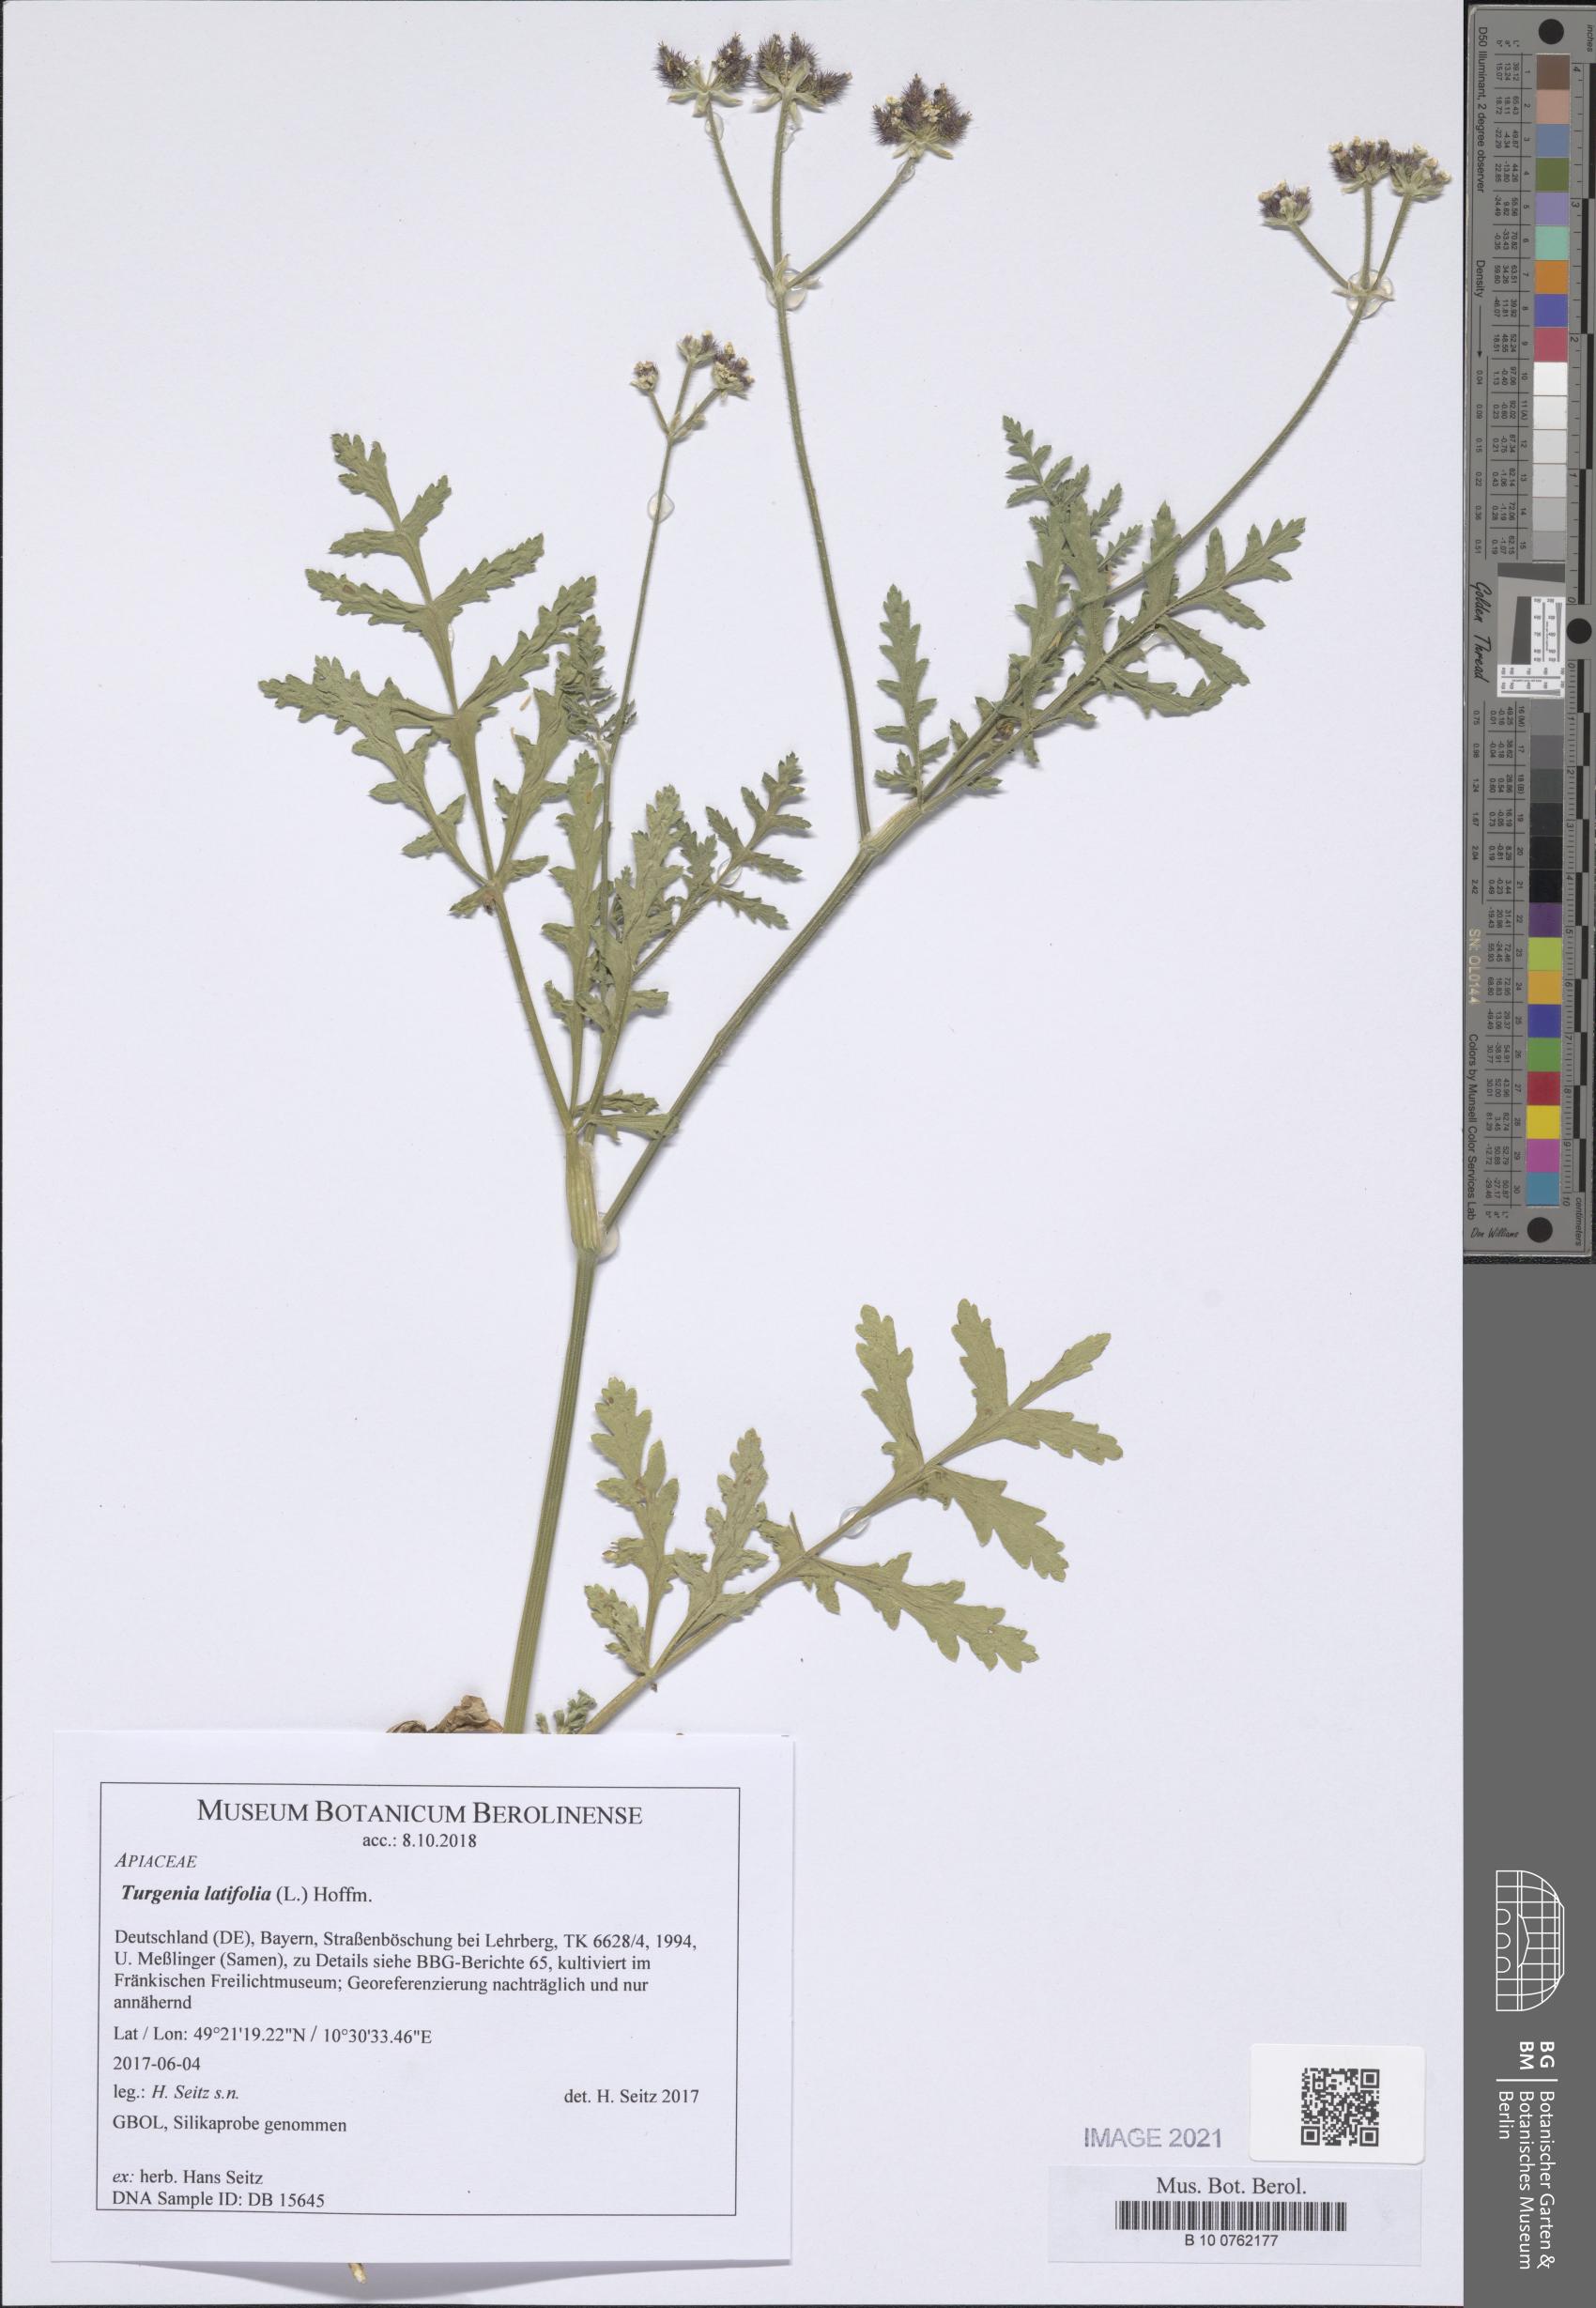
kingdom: Plantae
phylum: Tracheophyta
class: Magnoliopsida
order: Apiales
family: Apiaceae
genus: Turgenia
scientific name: Turgenia latifolia
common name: Greater bur-parsley
